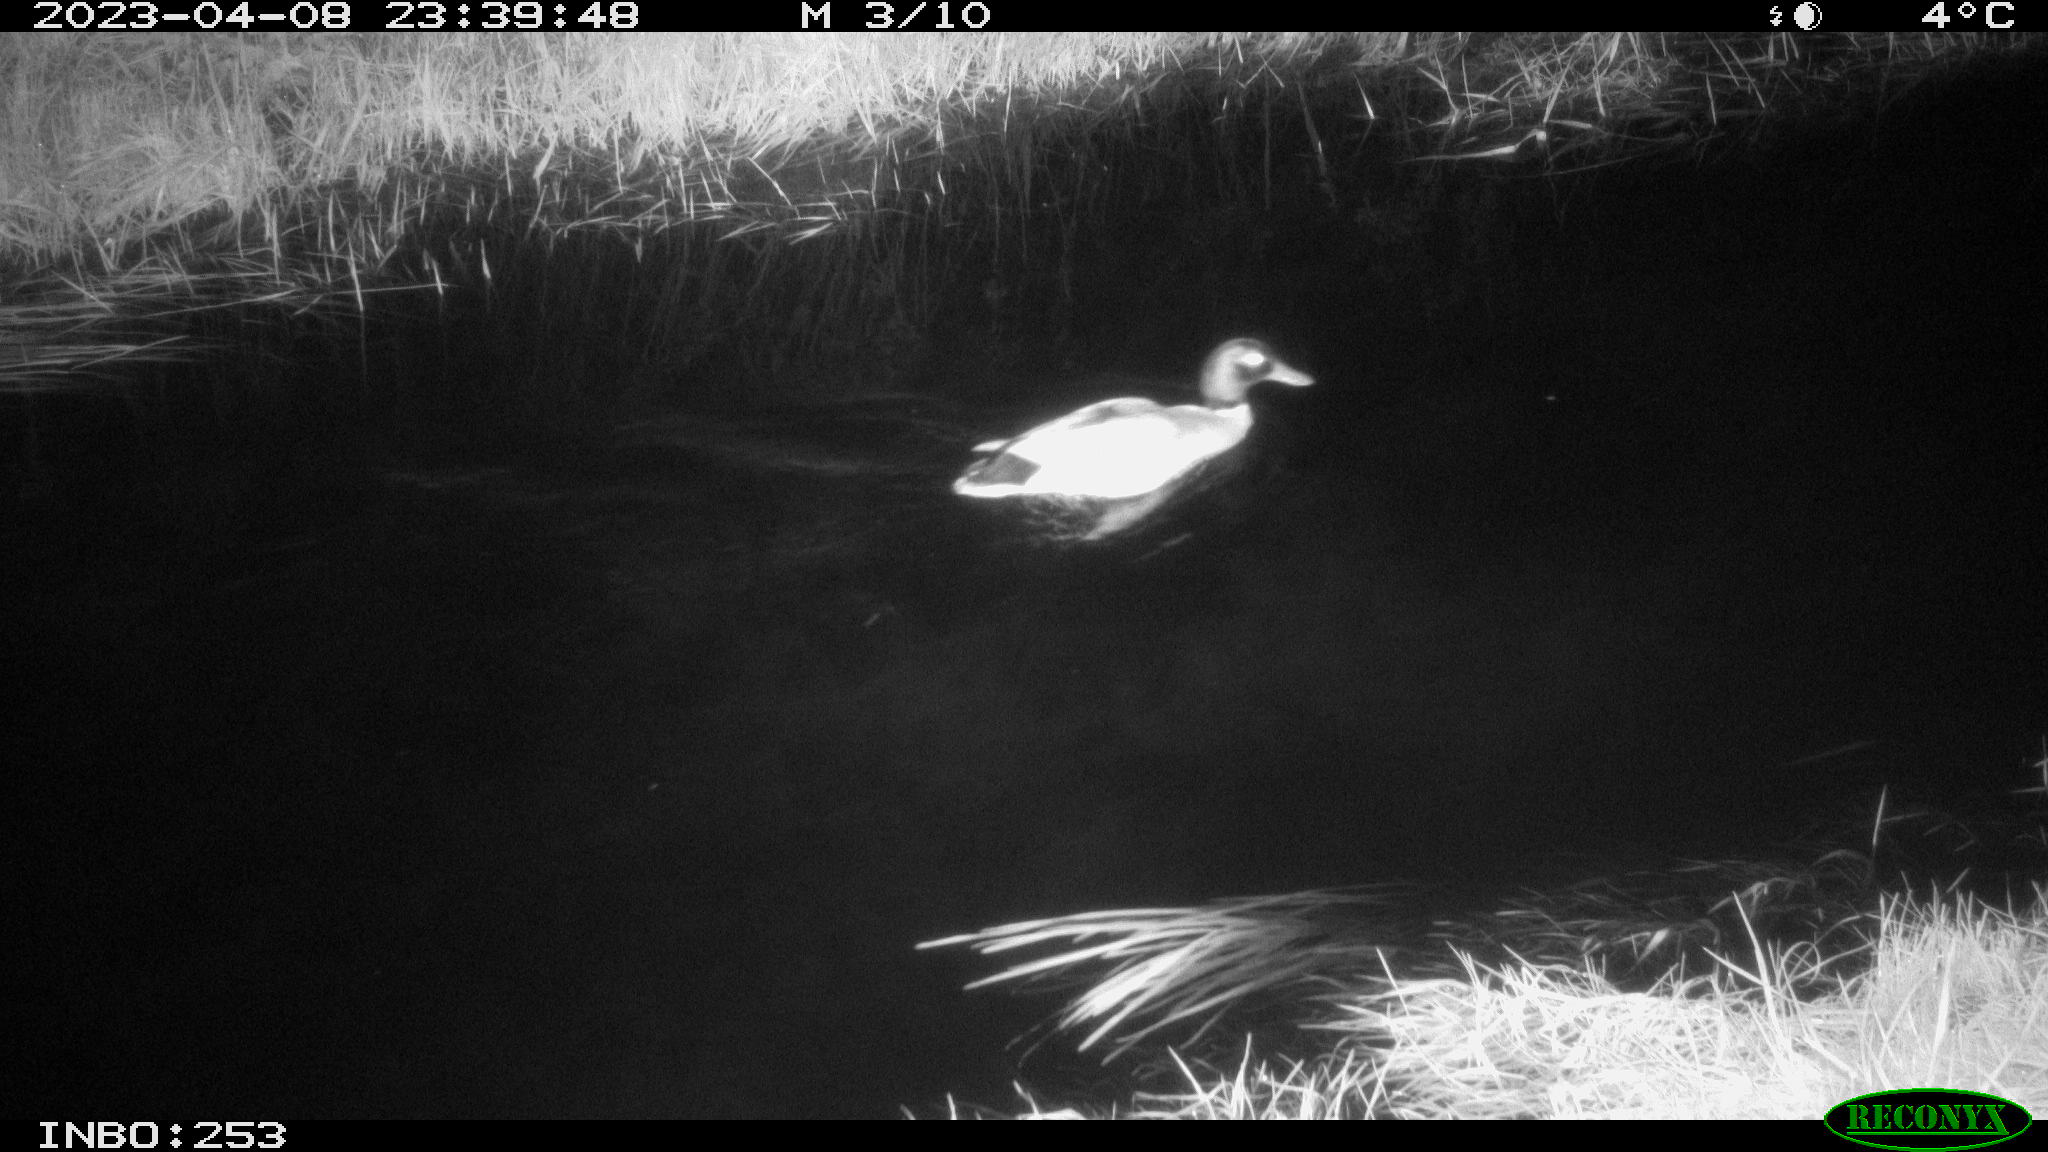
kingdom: Animalia
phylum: Chordata
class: Aves
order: Anseriformes
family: Anatidae
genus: Anas
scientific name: Anas
